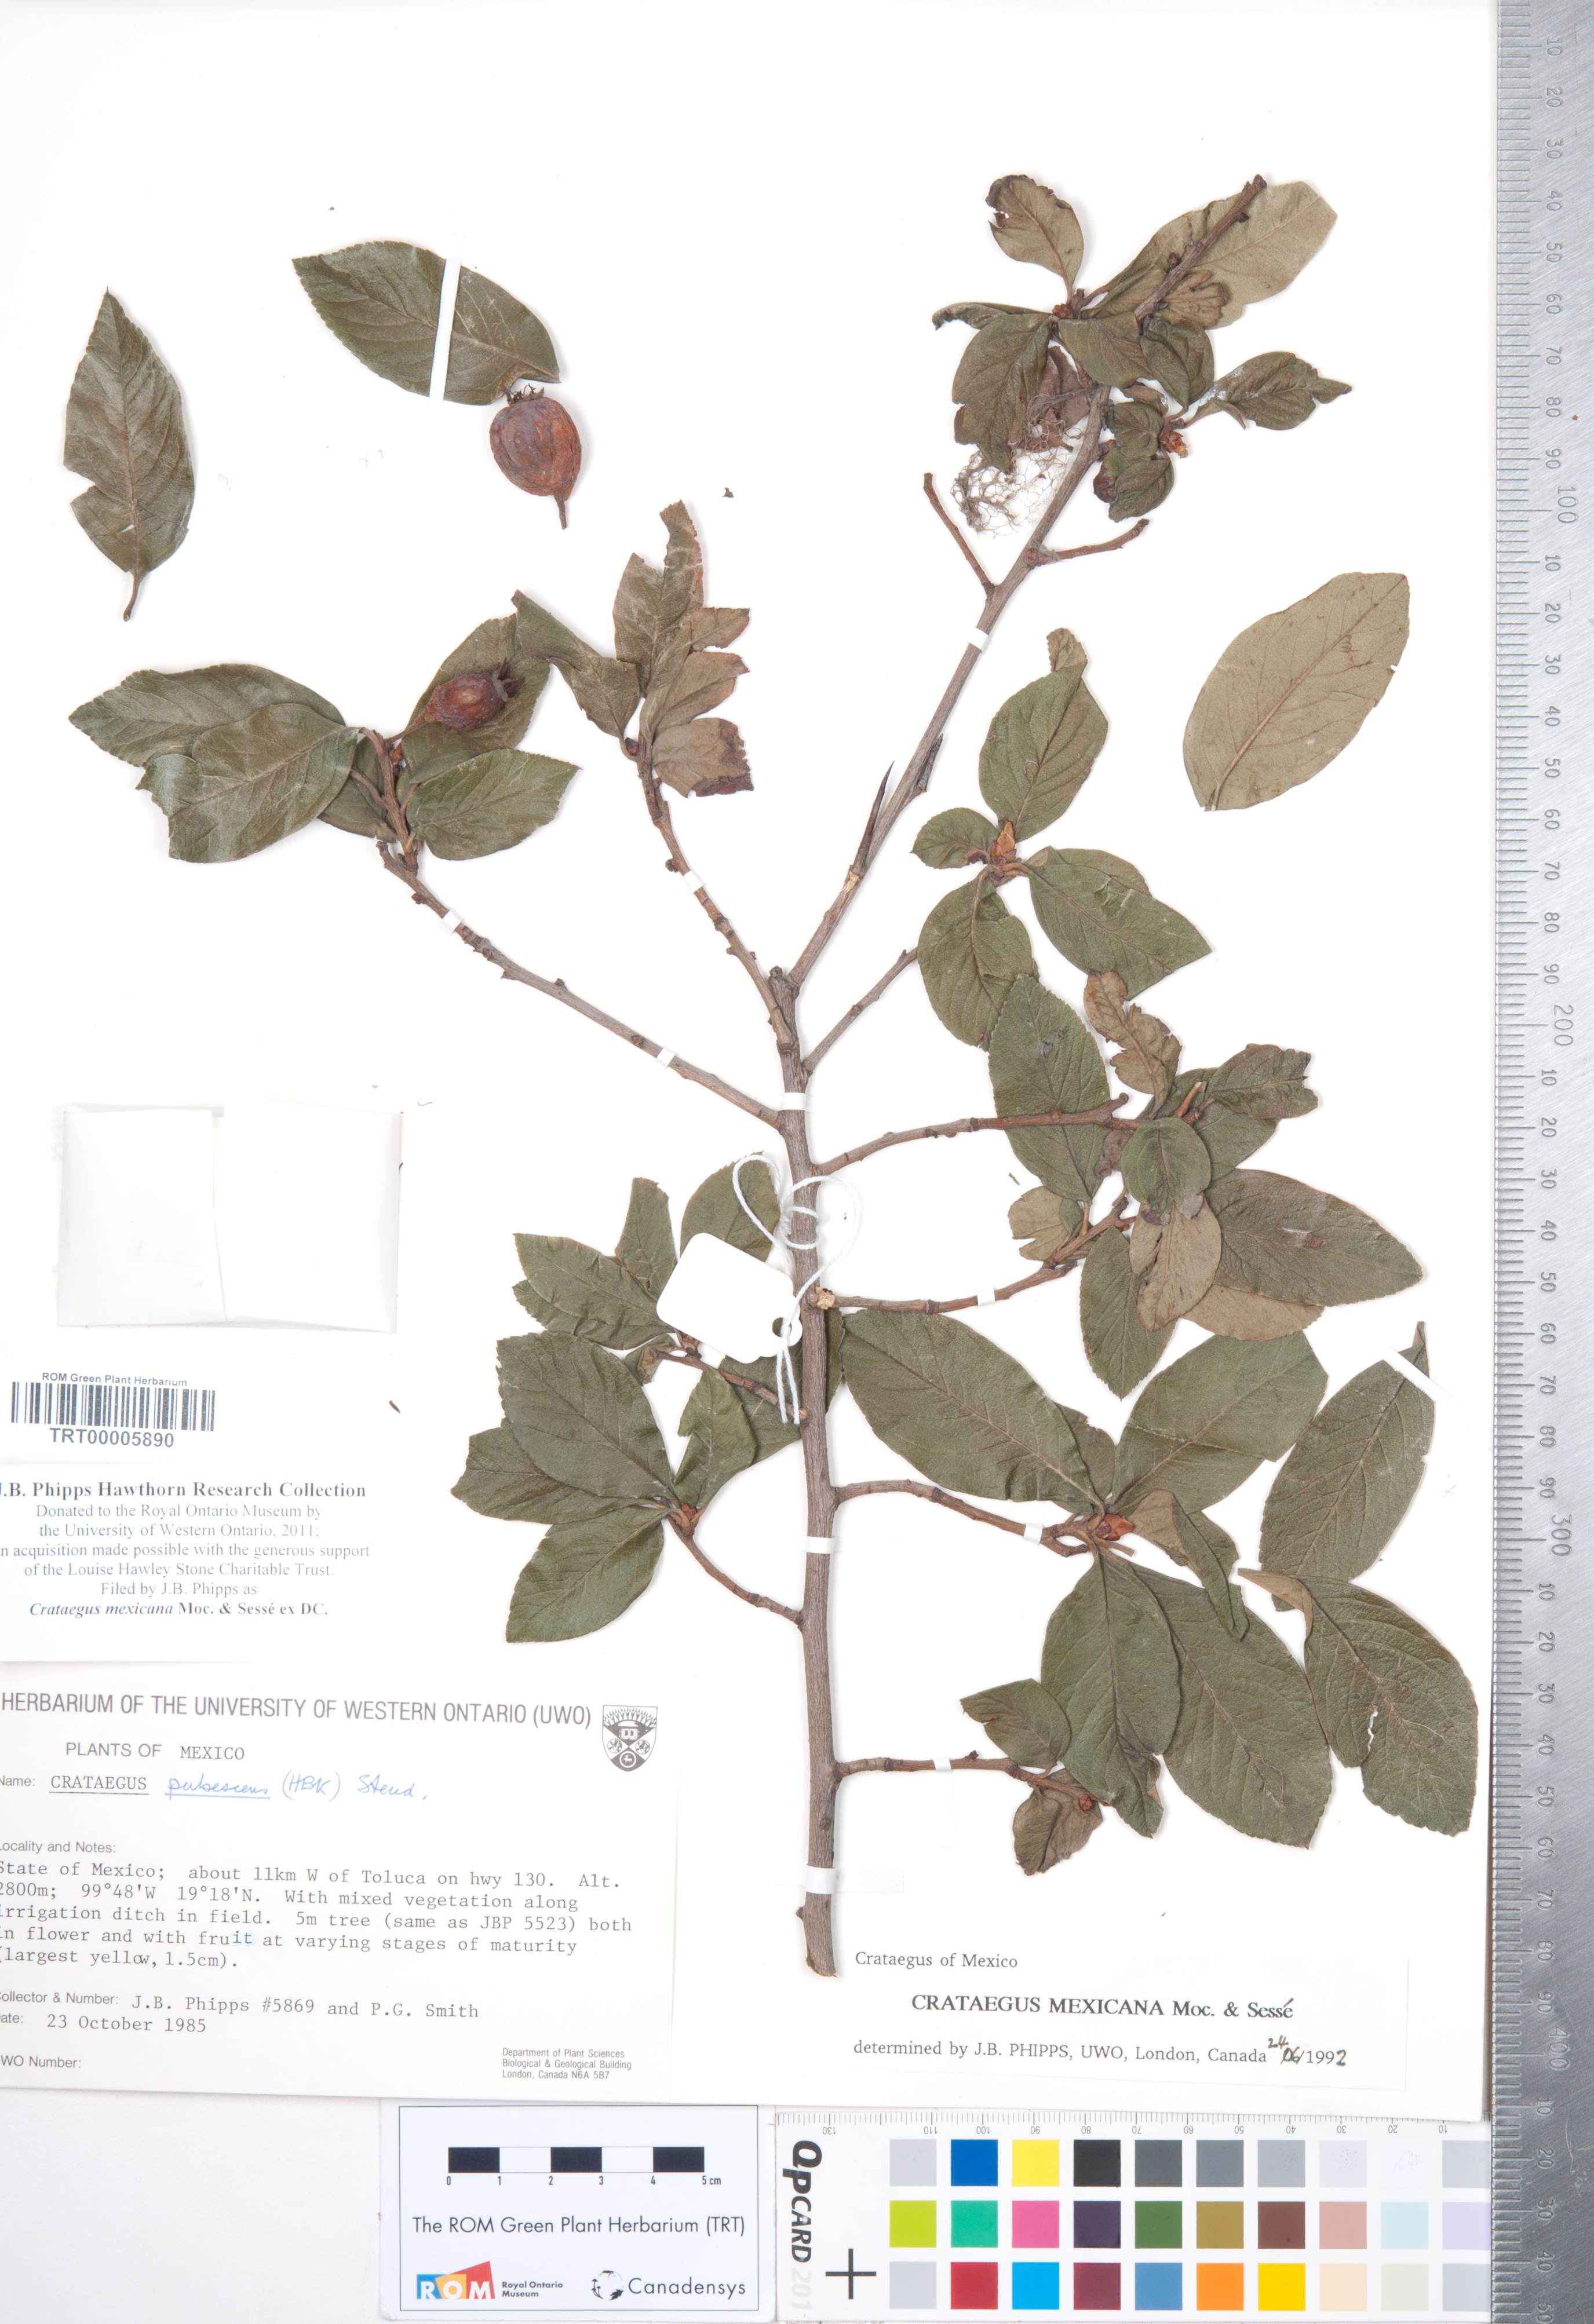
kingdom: Plantae
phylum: Tracheophyta
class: Magnoliopsida
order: Rosales
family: Rosaceae
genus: Crataegus
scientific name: Crataegus mexicana
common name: Mexican hawthorn
